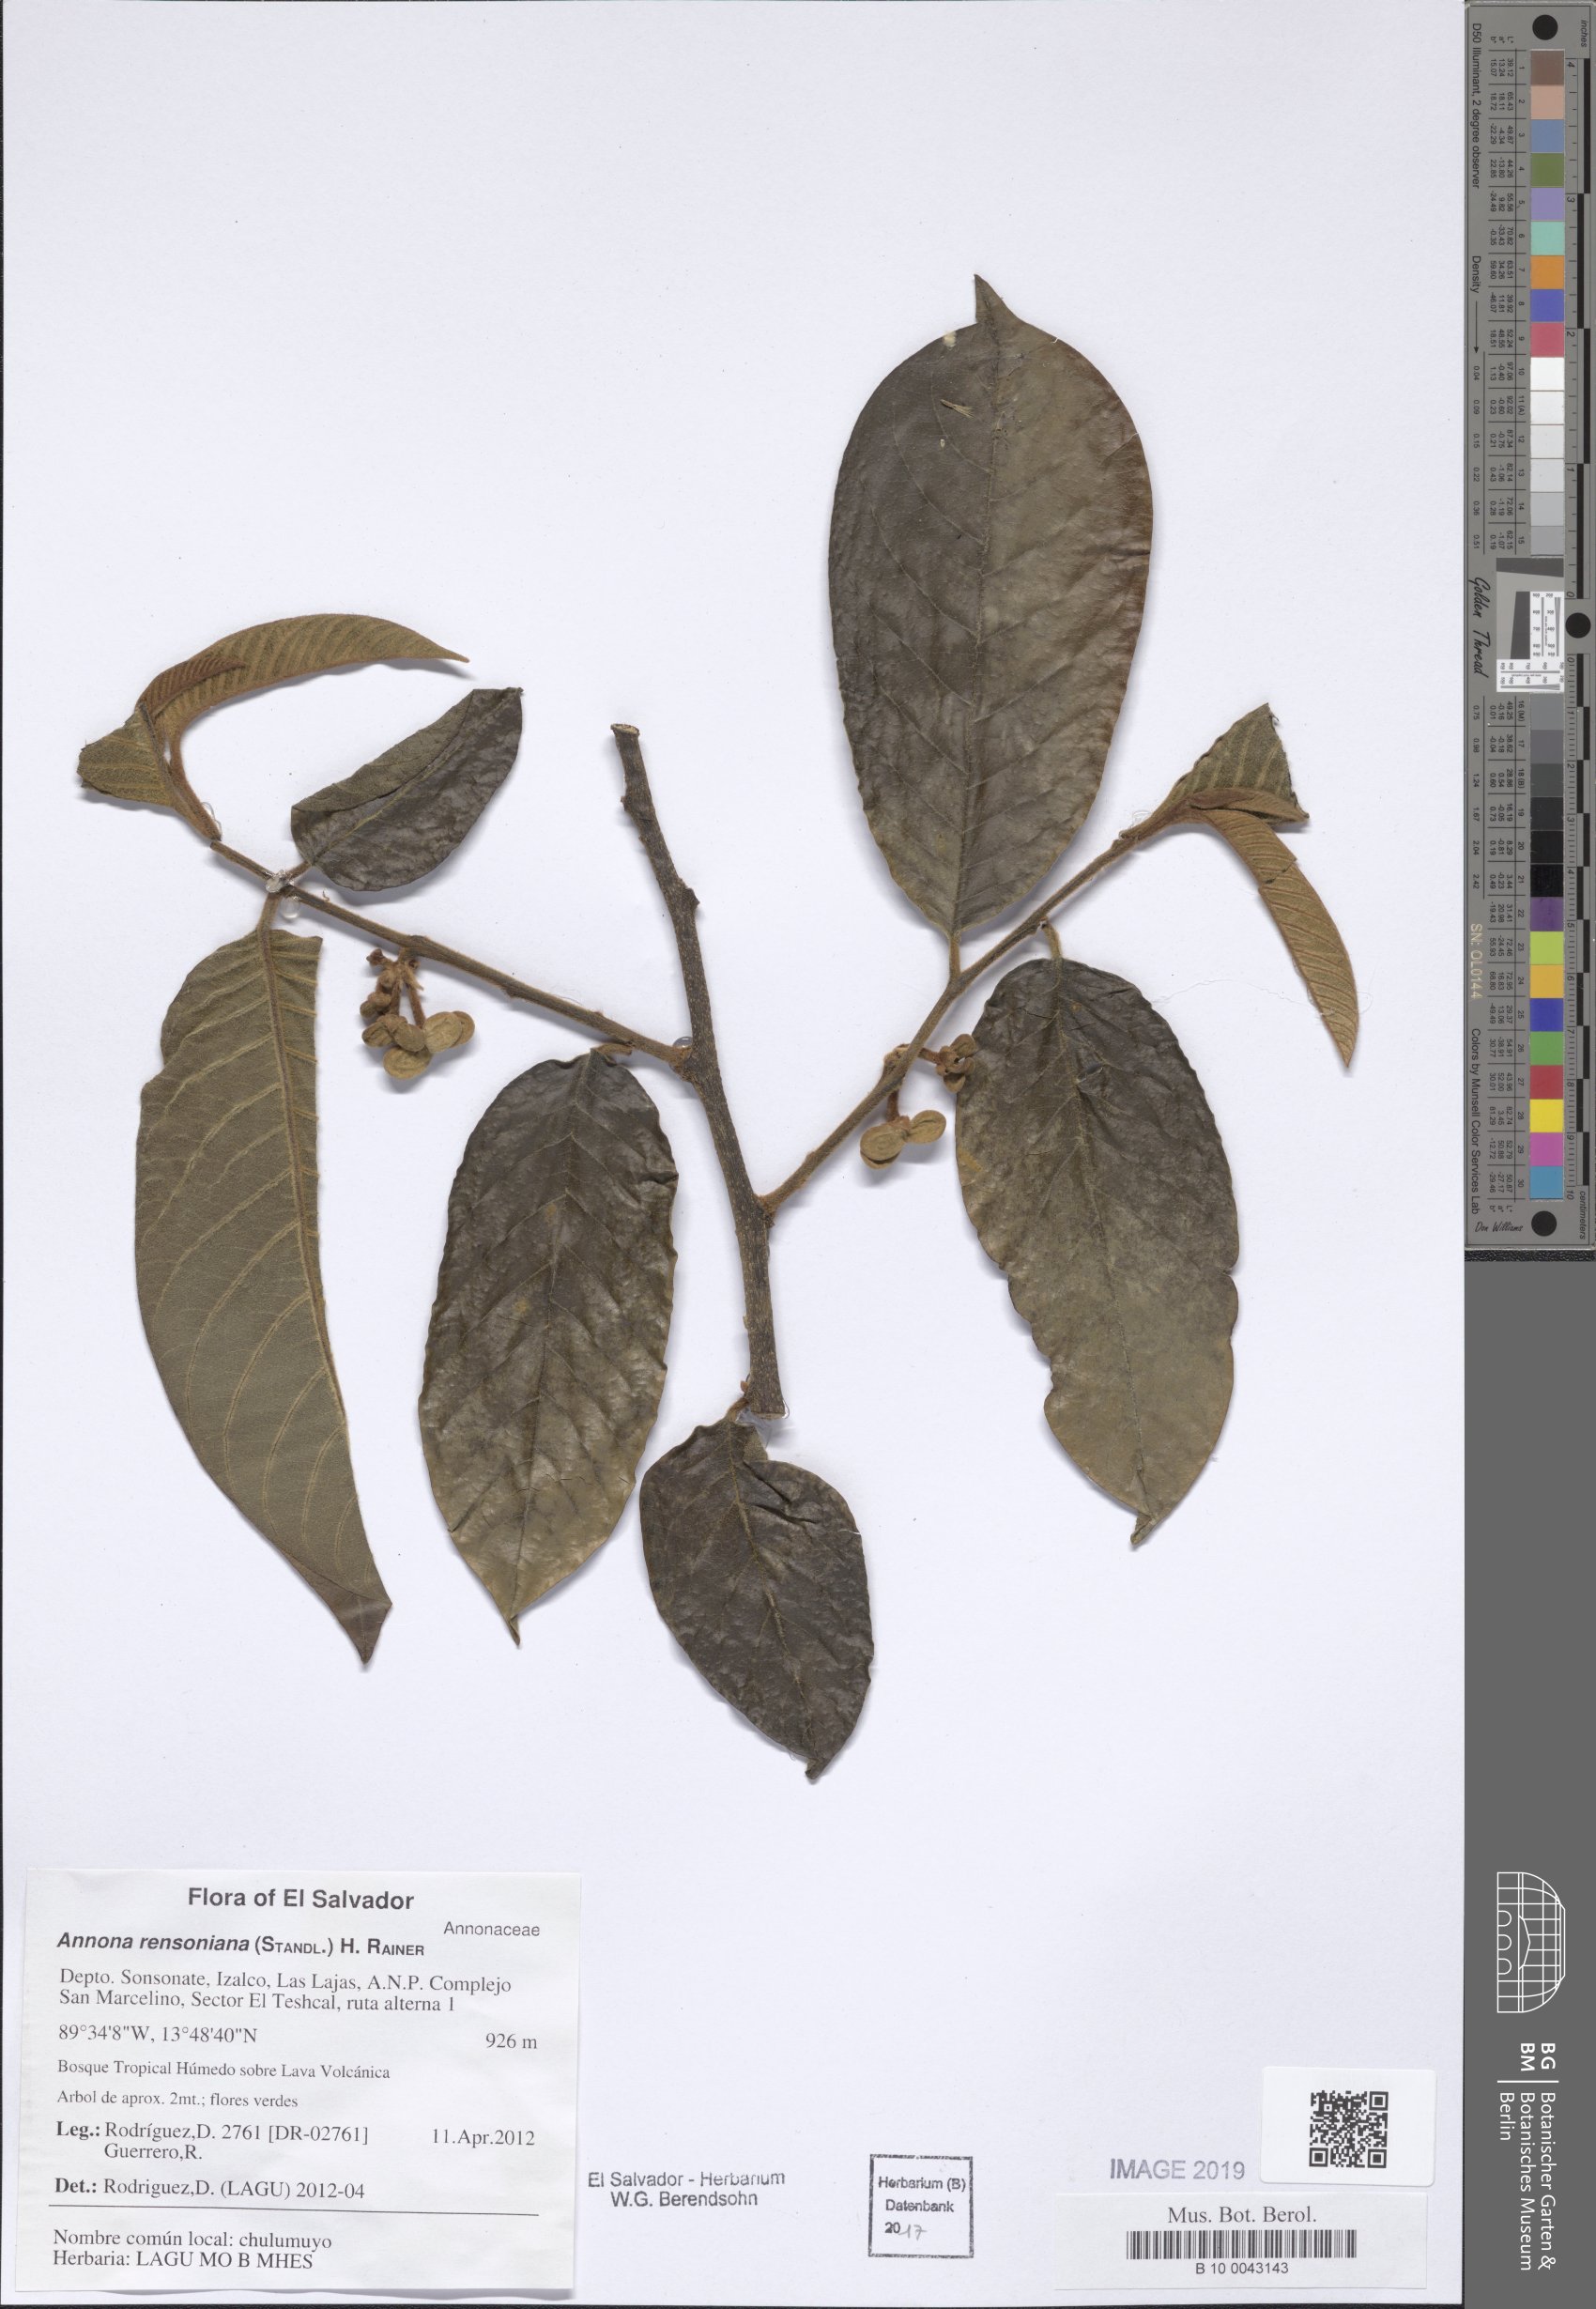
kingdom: Plantae
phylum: Tracheophyta
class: Magnoliopsida
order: Magnoliales
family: Annonaceae
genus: Annona
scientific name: Annona rensoniana
